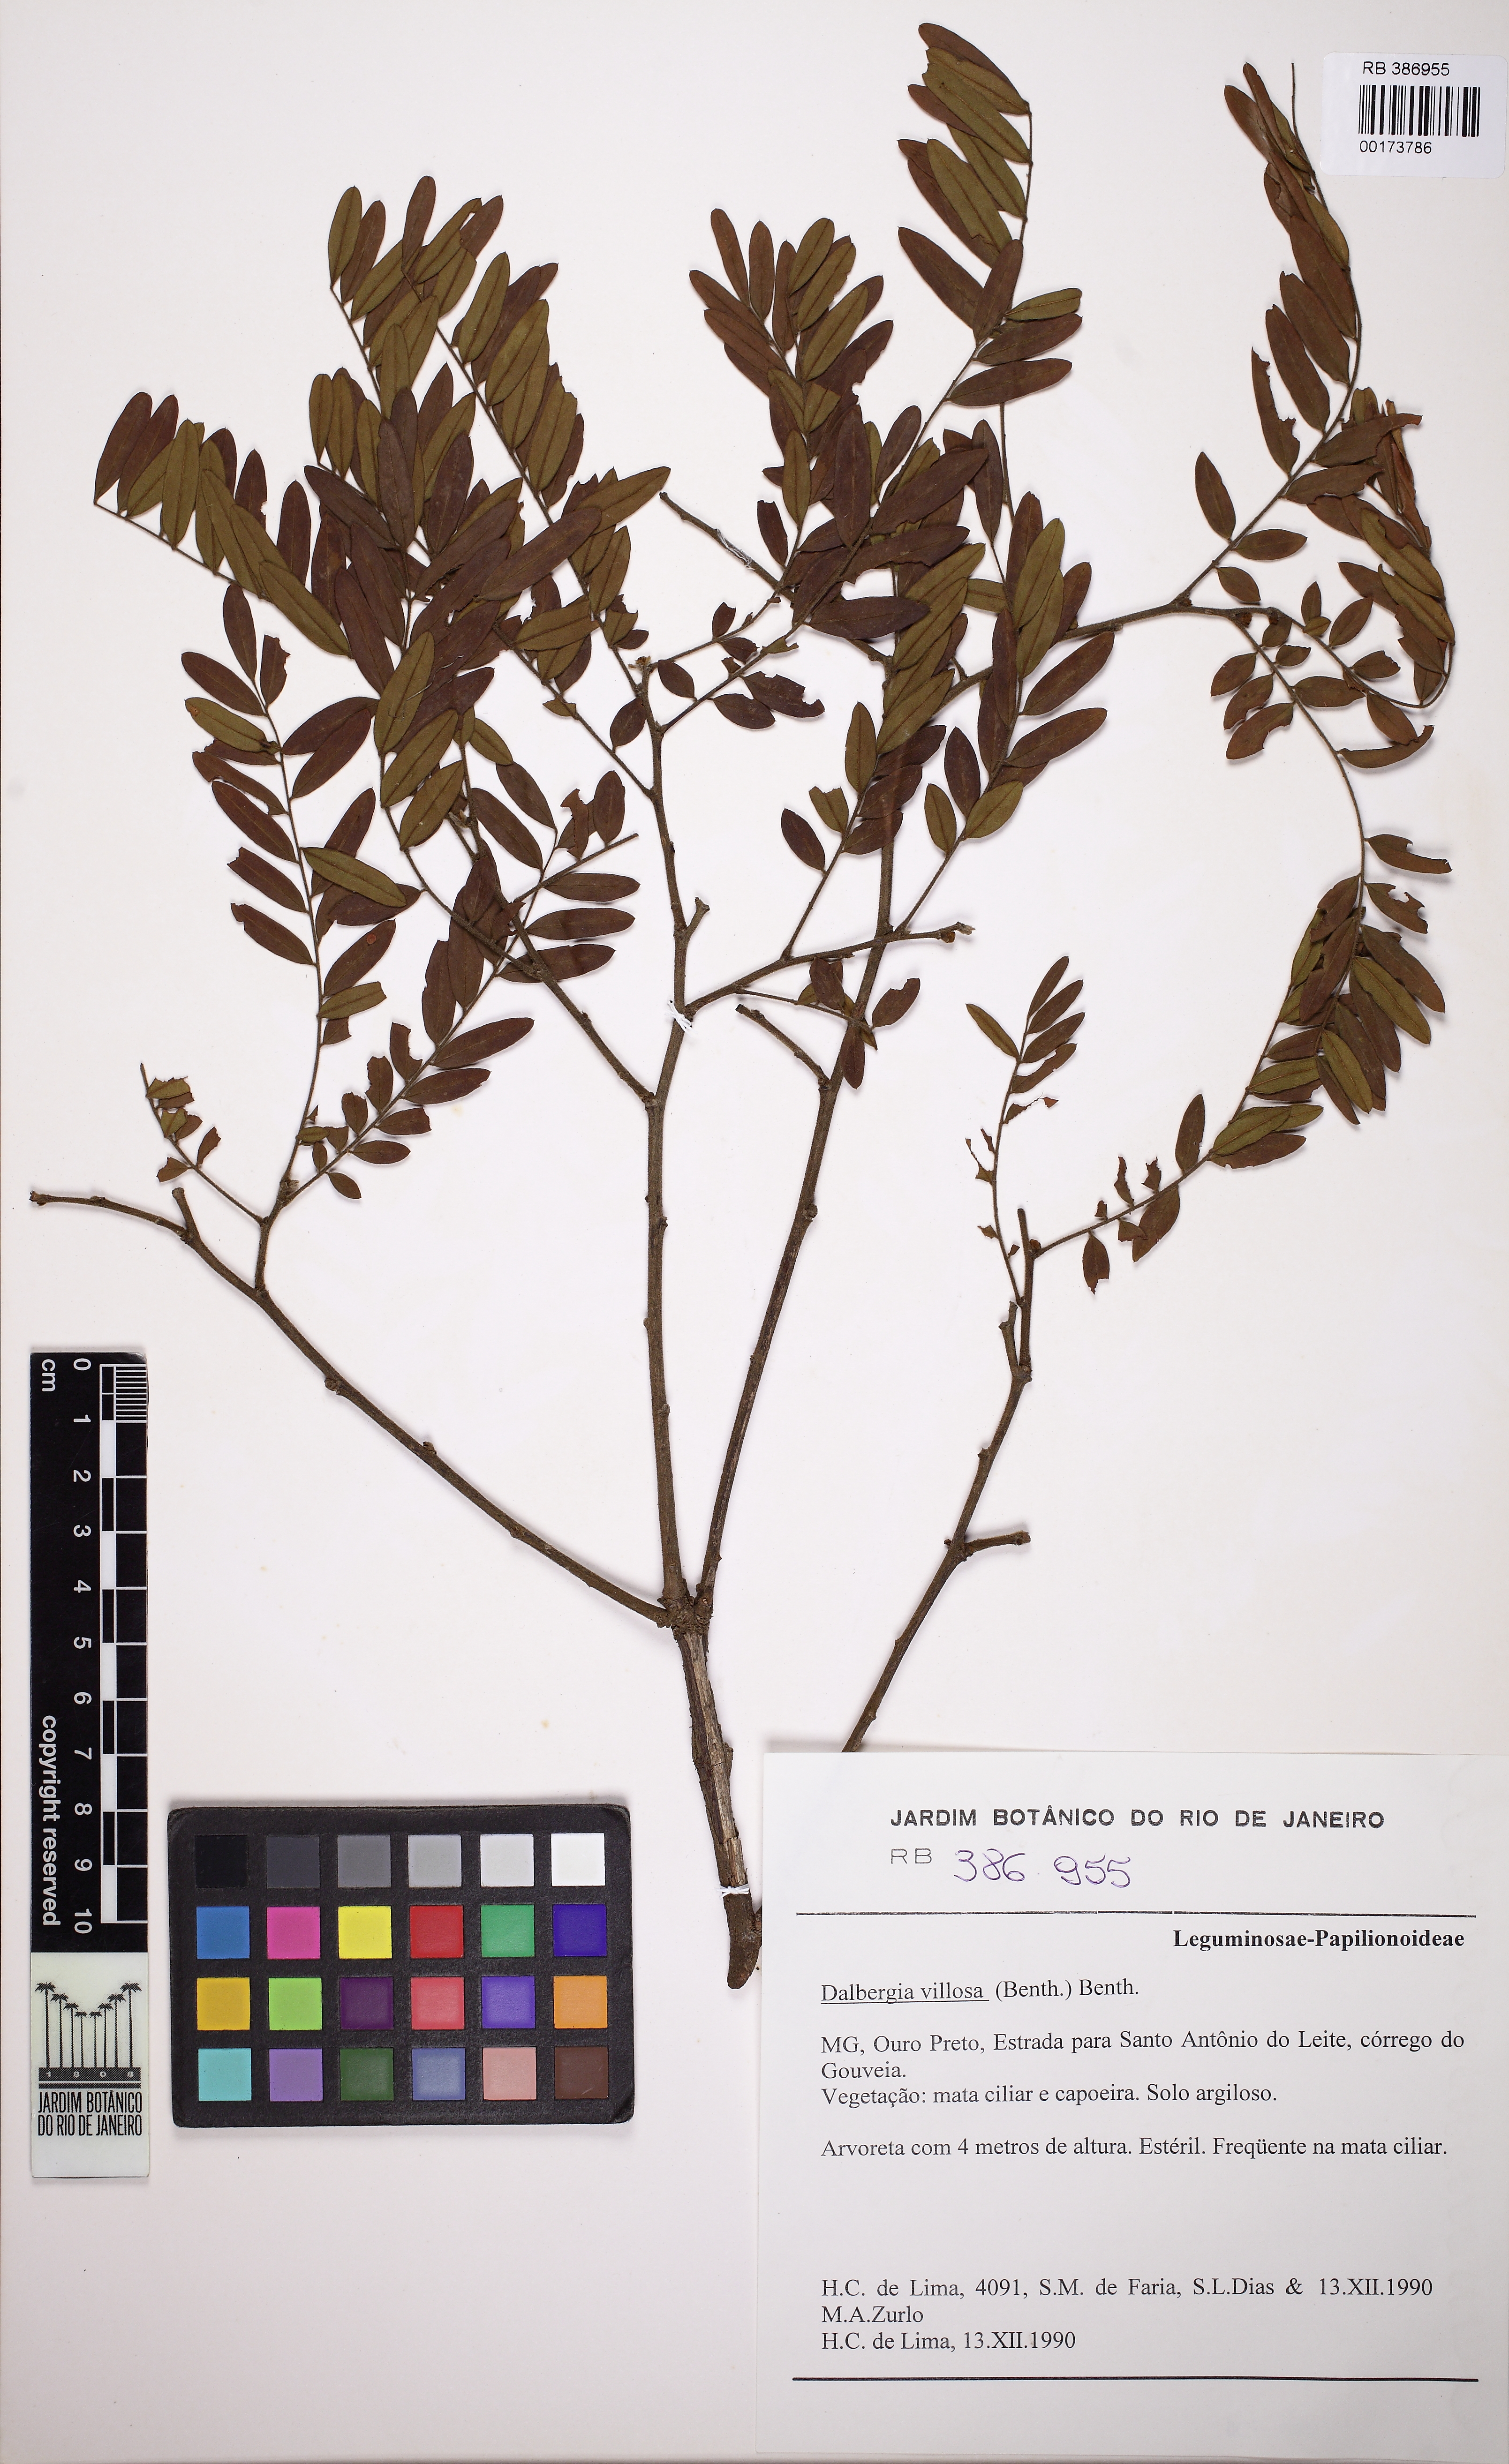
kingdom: Plantae
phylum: Tracheophyta
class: Magnoliopsida
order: Fabales
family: Fabaceae
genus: Dalbergia
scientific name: Dalbergia villosa
